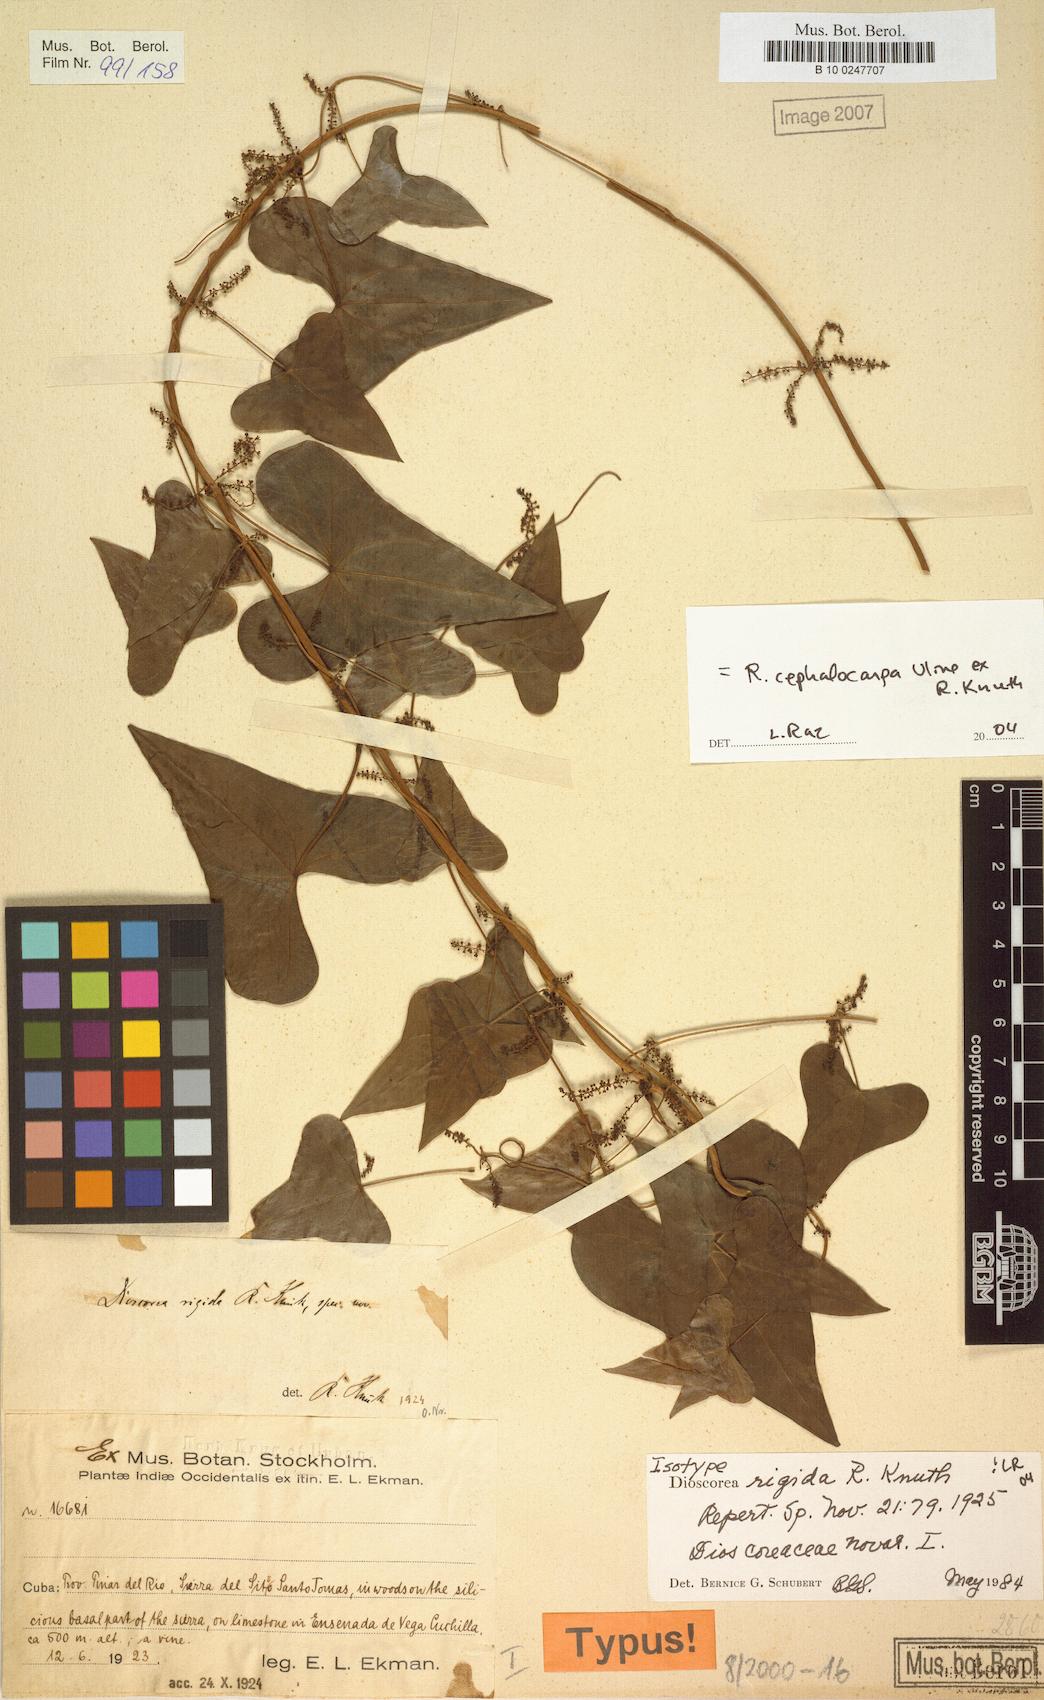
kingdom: Plantae
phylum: Tracheophyta
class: Liliopsida
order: Dioscoreales
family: Dioscoreaceae
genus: Dioscorea
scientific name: Dioscorea cephalocarpa
